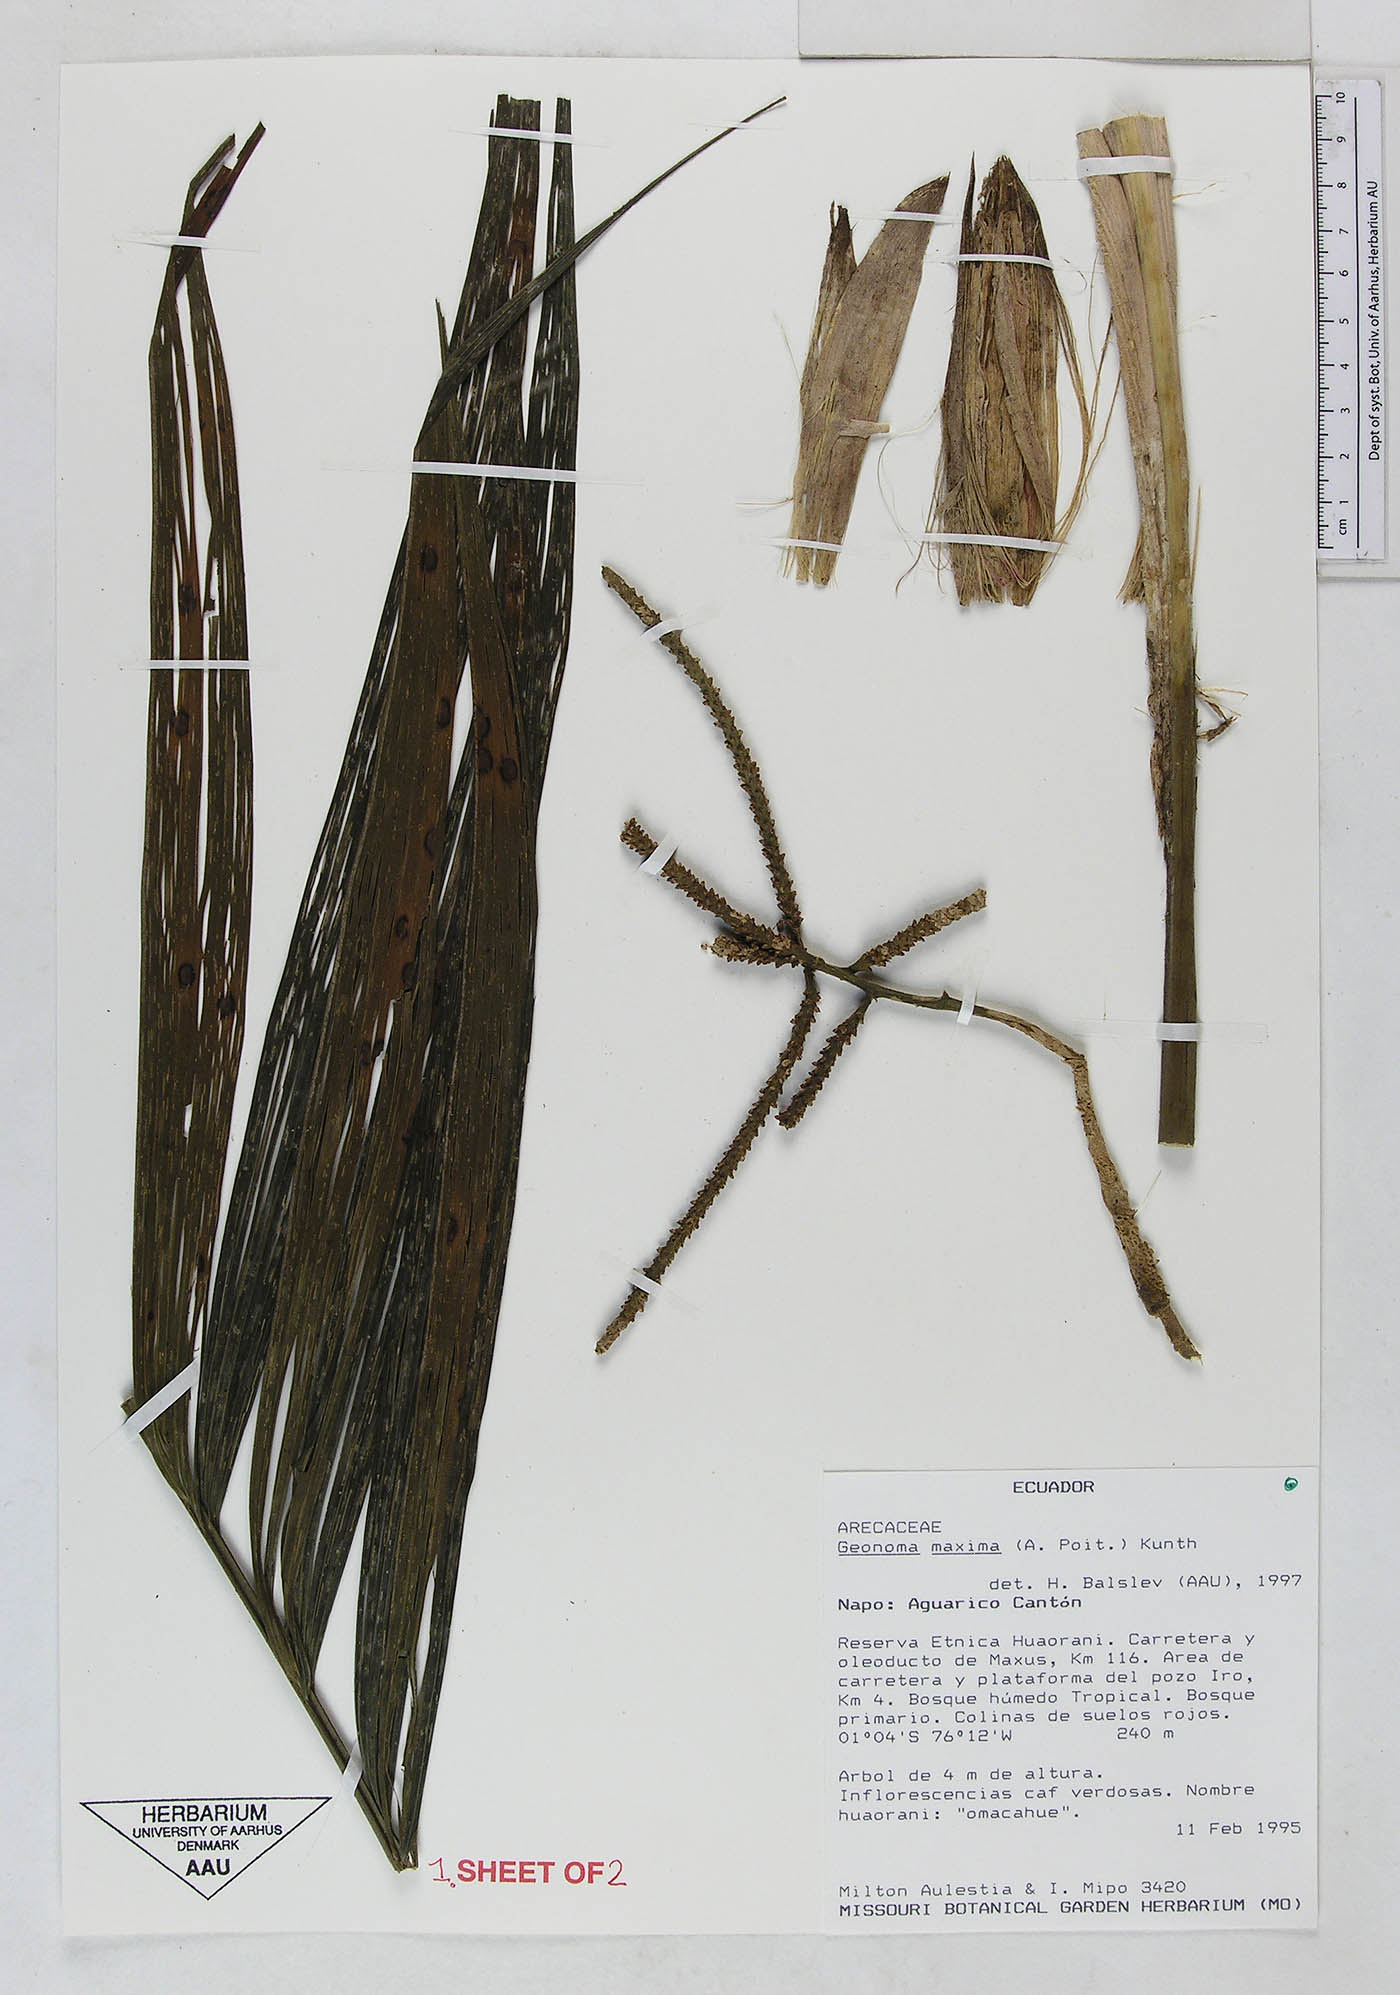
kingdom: Plantae
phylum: Tracheophyta
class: Liliopsida
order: Arecales
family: Arecaceae
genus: Geonoma
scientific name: Geonoma maxima
